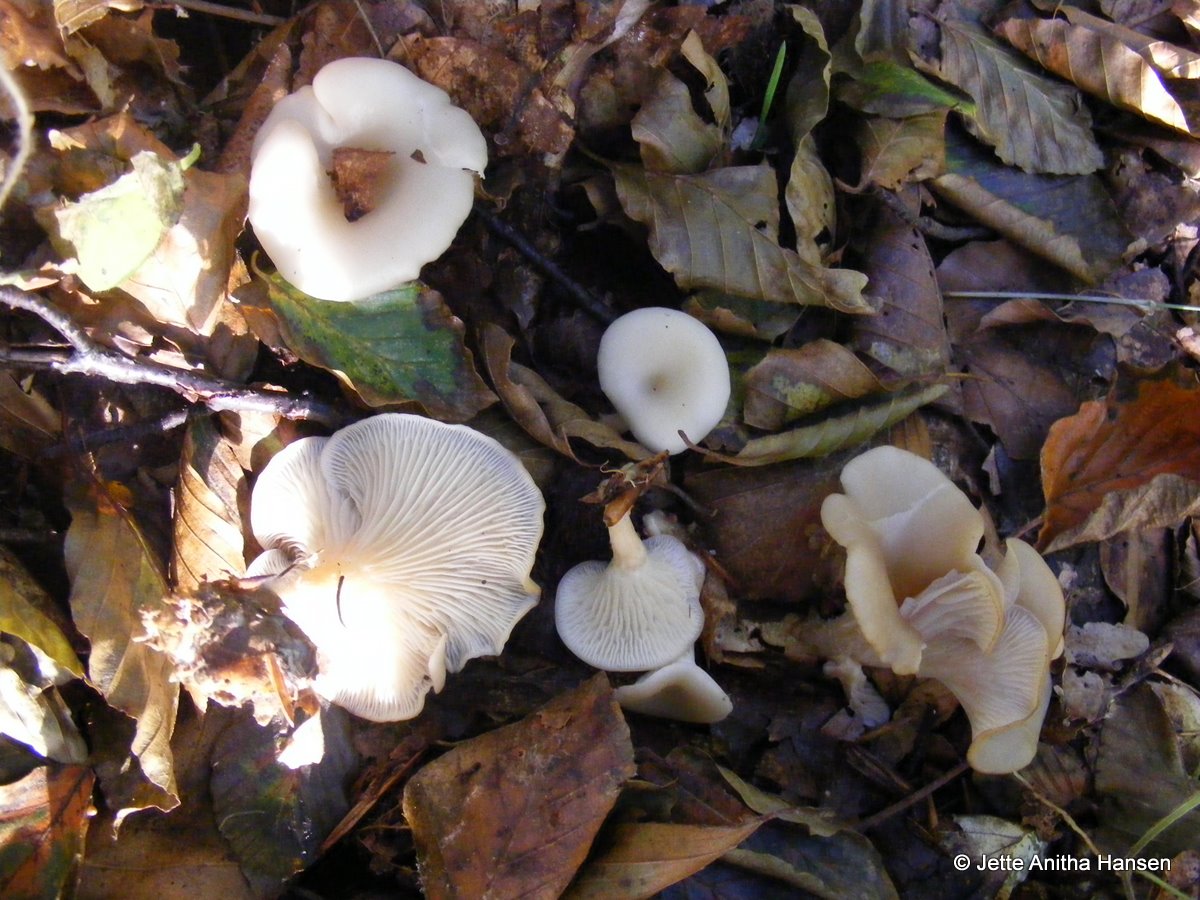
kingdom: Fungi
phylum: Basidiomycota
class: Agaricomycetes
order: Agaricales
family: Hygrophoraceae
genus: Hygrophorus
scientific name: Hygrophorus eburneus
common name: elfenbens-sneglehat
